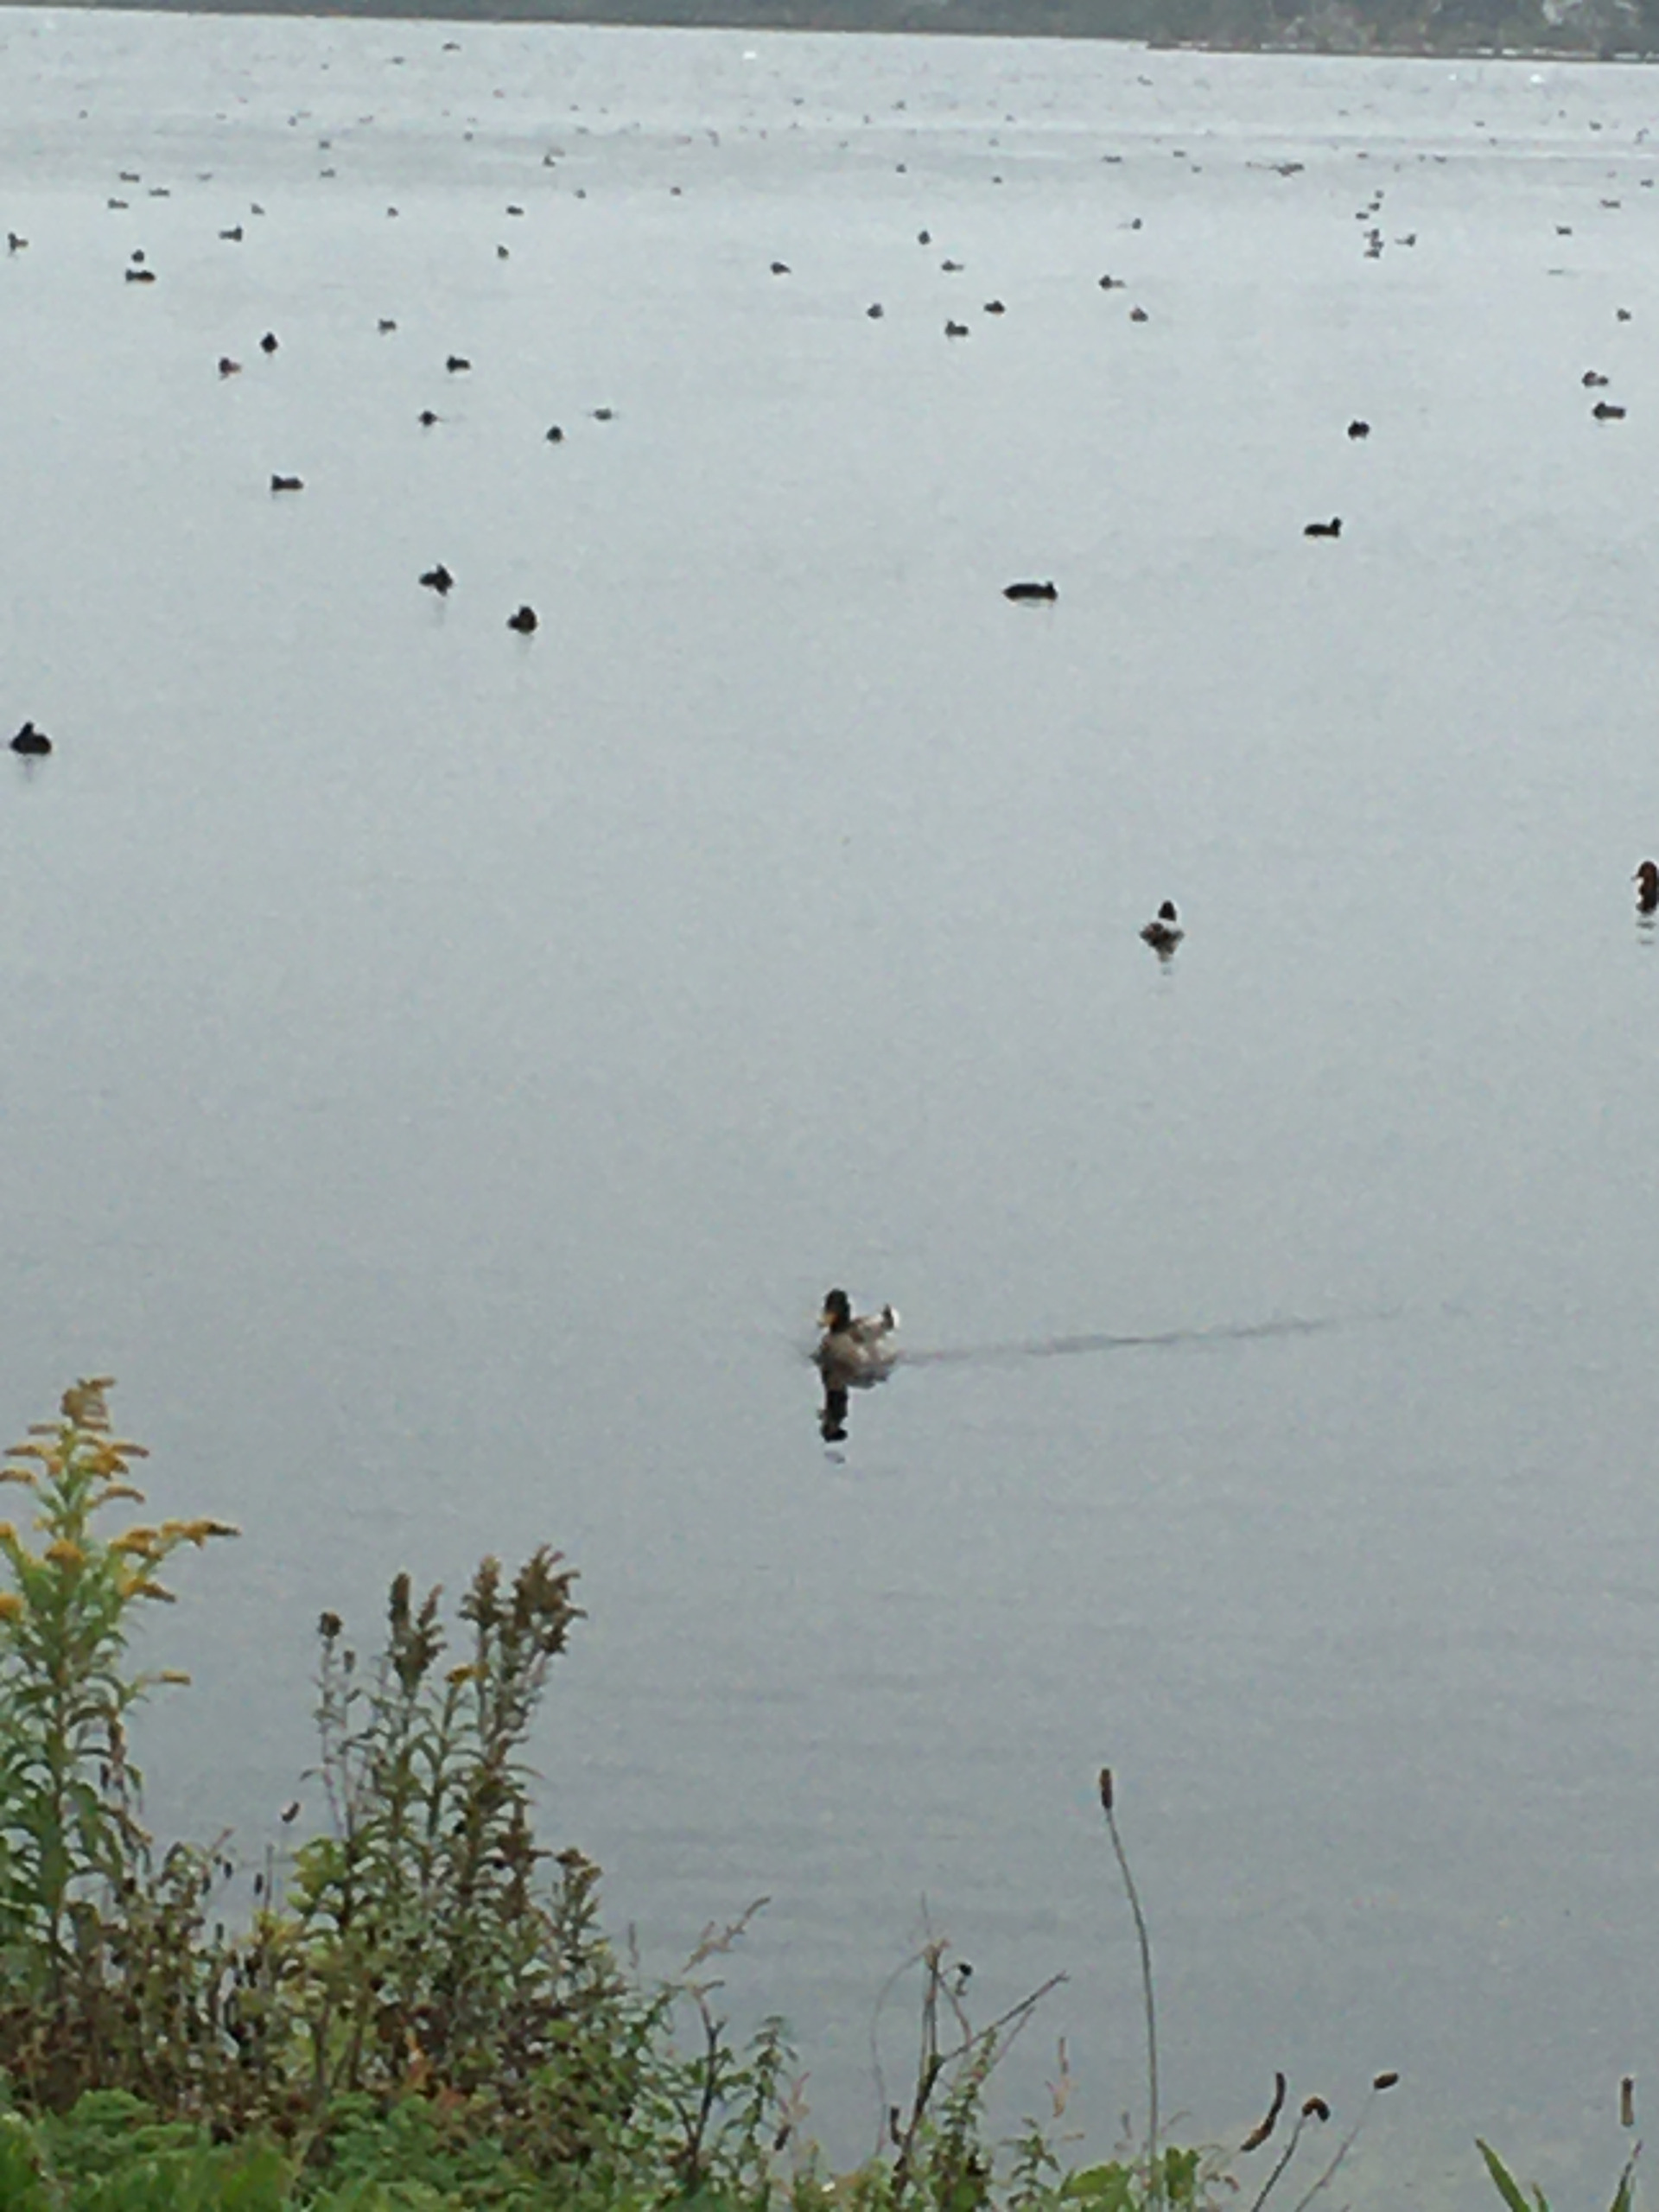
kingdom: Animalia
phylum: Chordata
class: Aves
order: Anseriformes
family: Anatidae
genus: Anas
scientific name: Anas platyrhynchos
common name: Gråand
